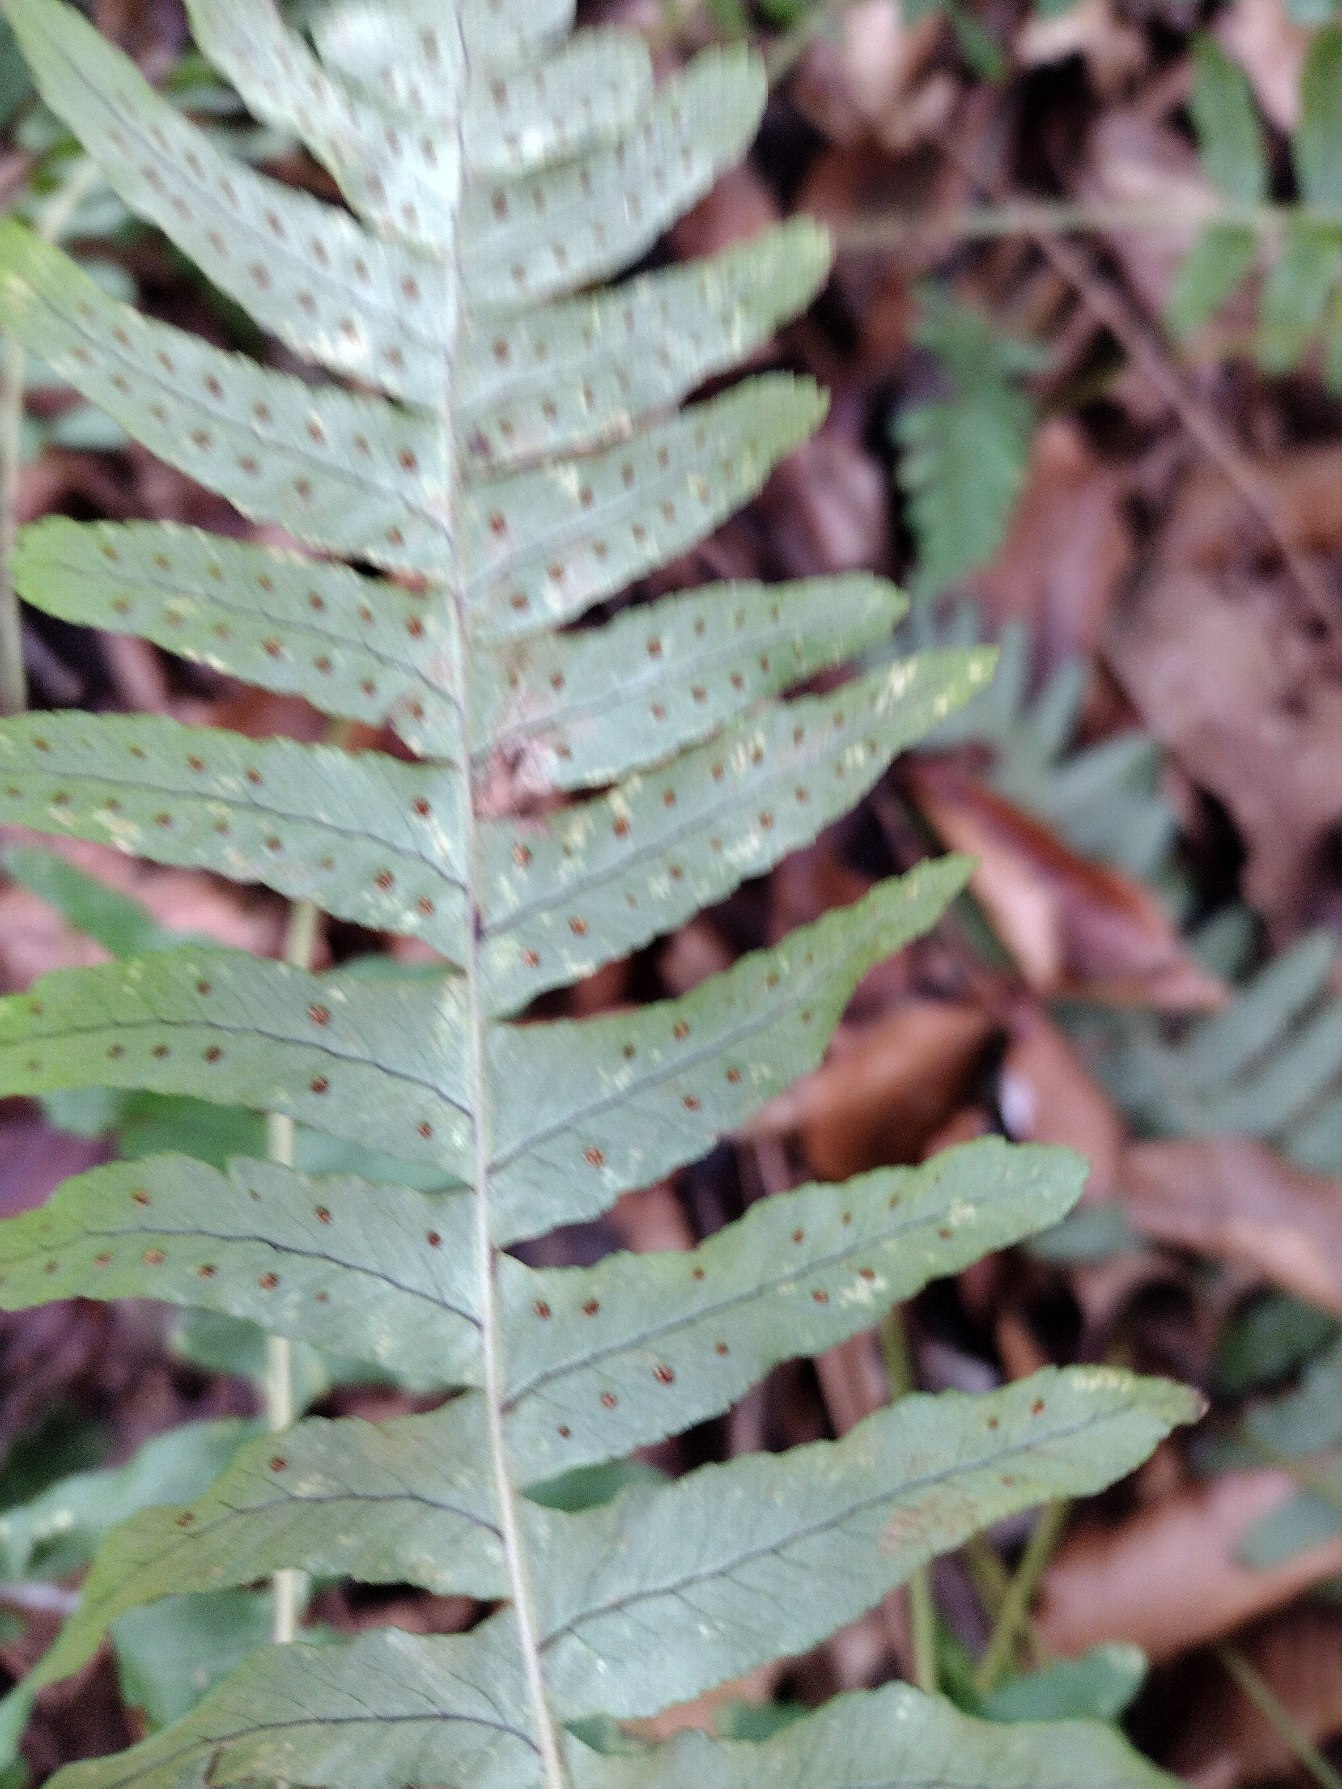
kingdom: Plantae
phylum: Tracheophyta
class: Polypodiopsida
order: Polypodiales
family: Polypodiaceae
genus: Polypodium
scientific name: Polypodium vulgare
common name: Almindelig engelsød
